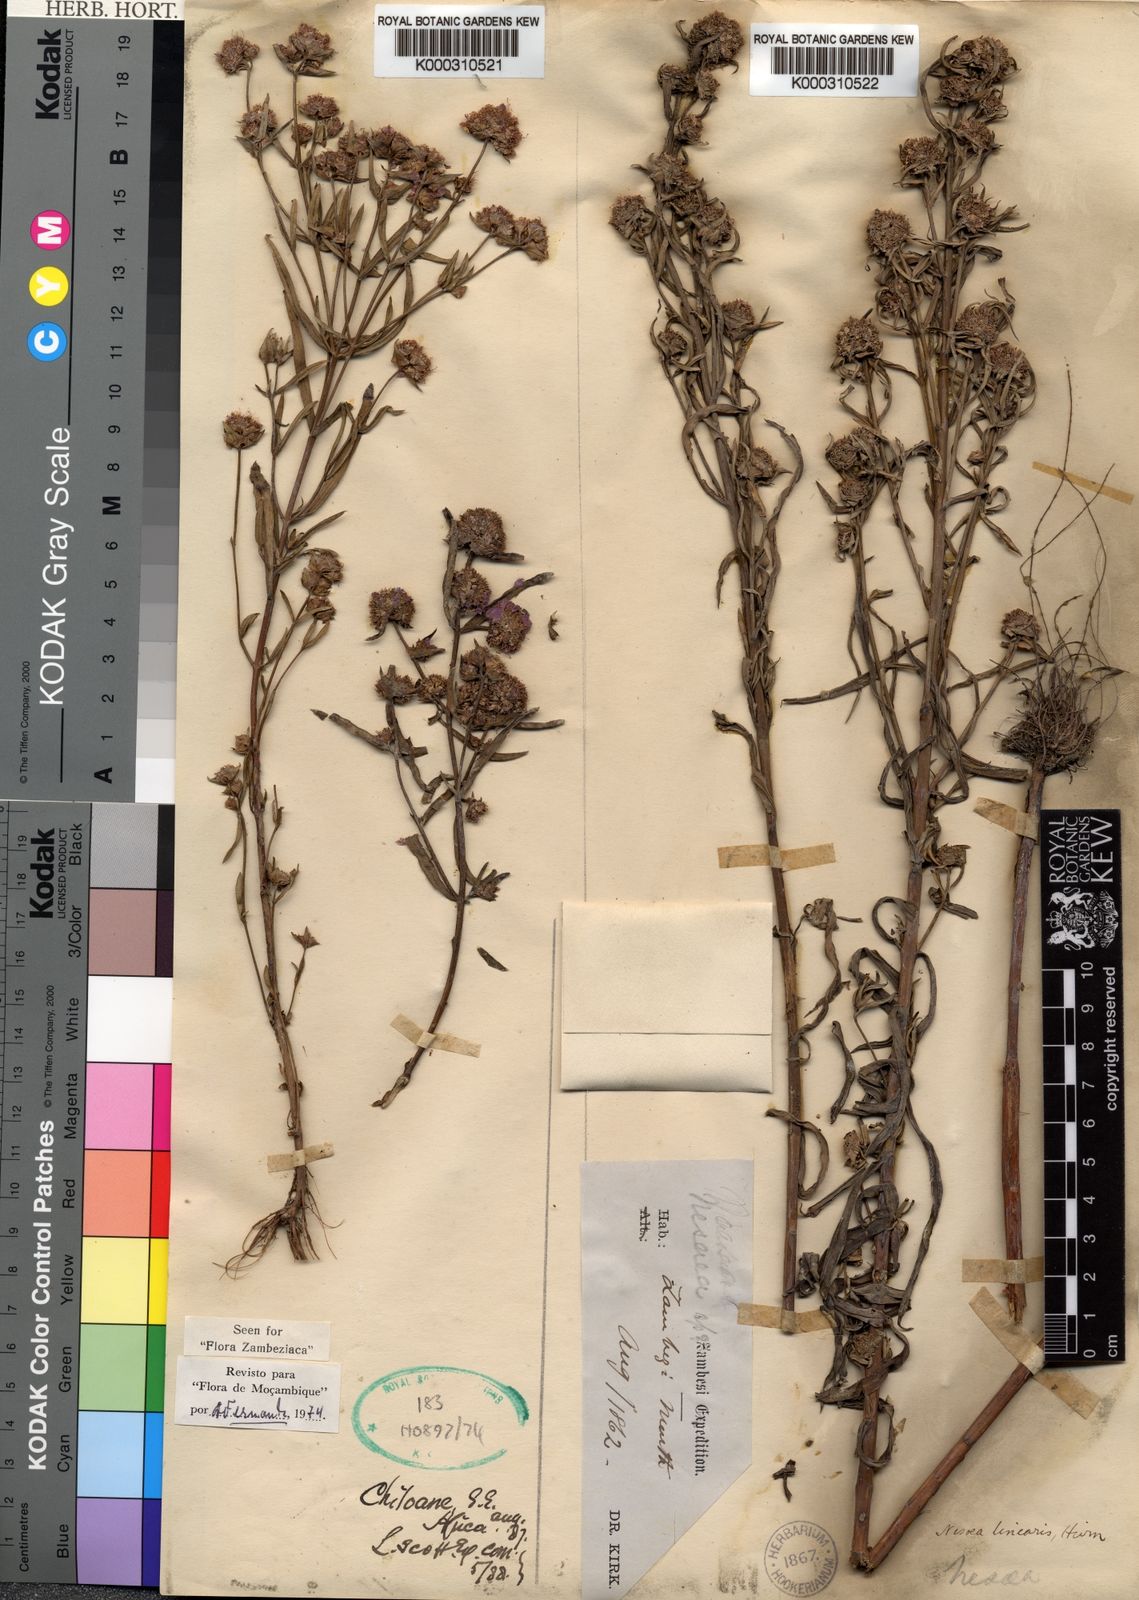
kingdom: Plantae
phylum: Tracheophyta
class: Magnoliopsida
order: Myrtales
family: Lythraceae
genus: Ammannia
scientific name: Ammannia linearis
